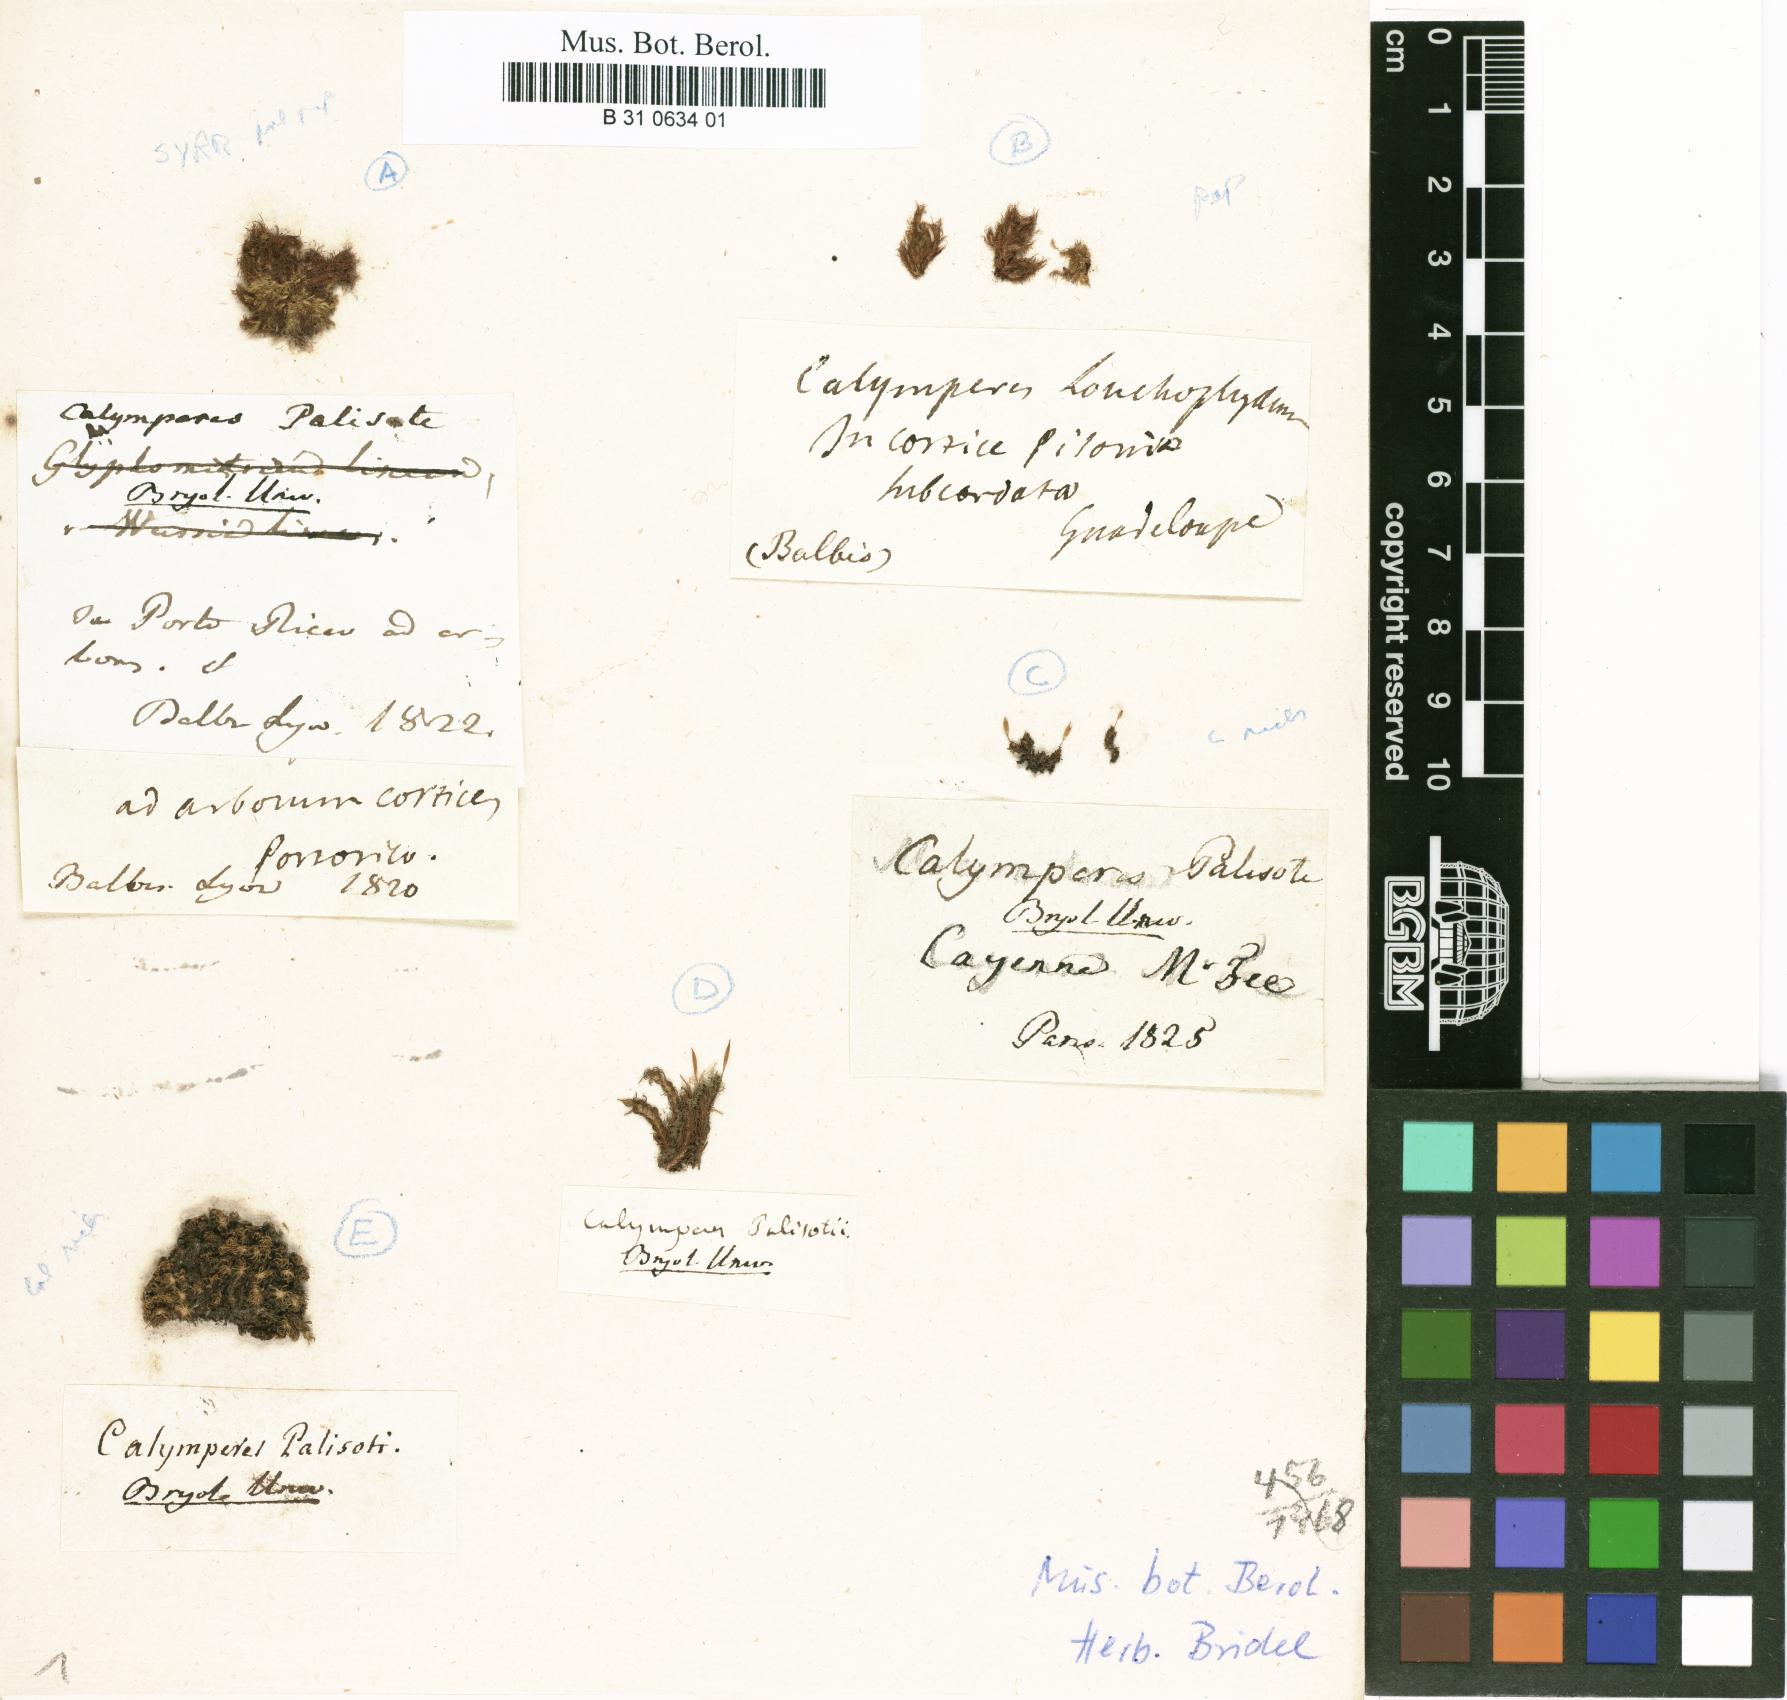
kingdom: Plantae
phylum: Bryophyta
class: Bryopsida
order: Dicranales
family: Calymperaceae
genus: Calymperes
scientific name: Calymperes palisotii
